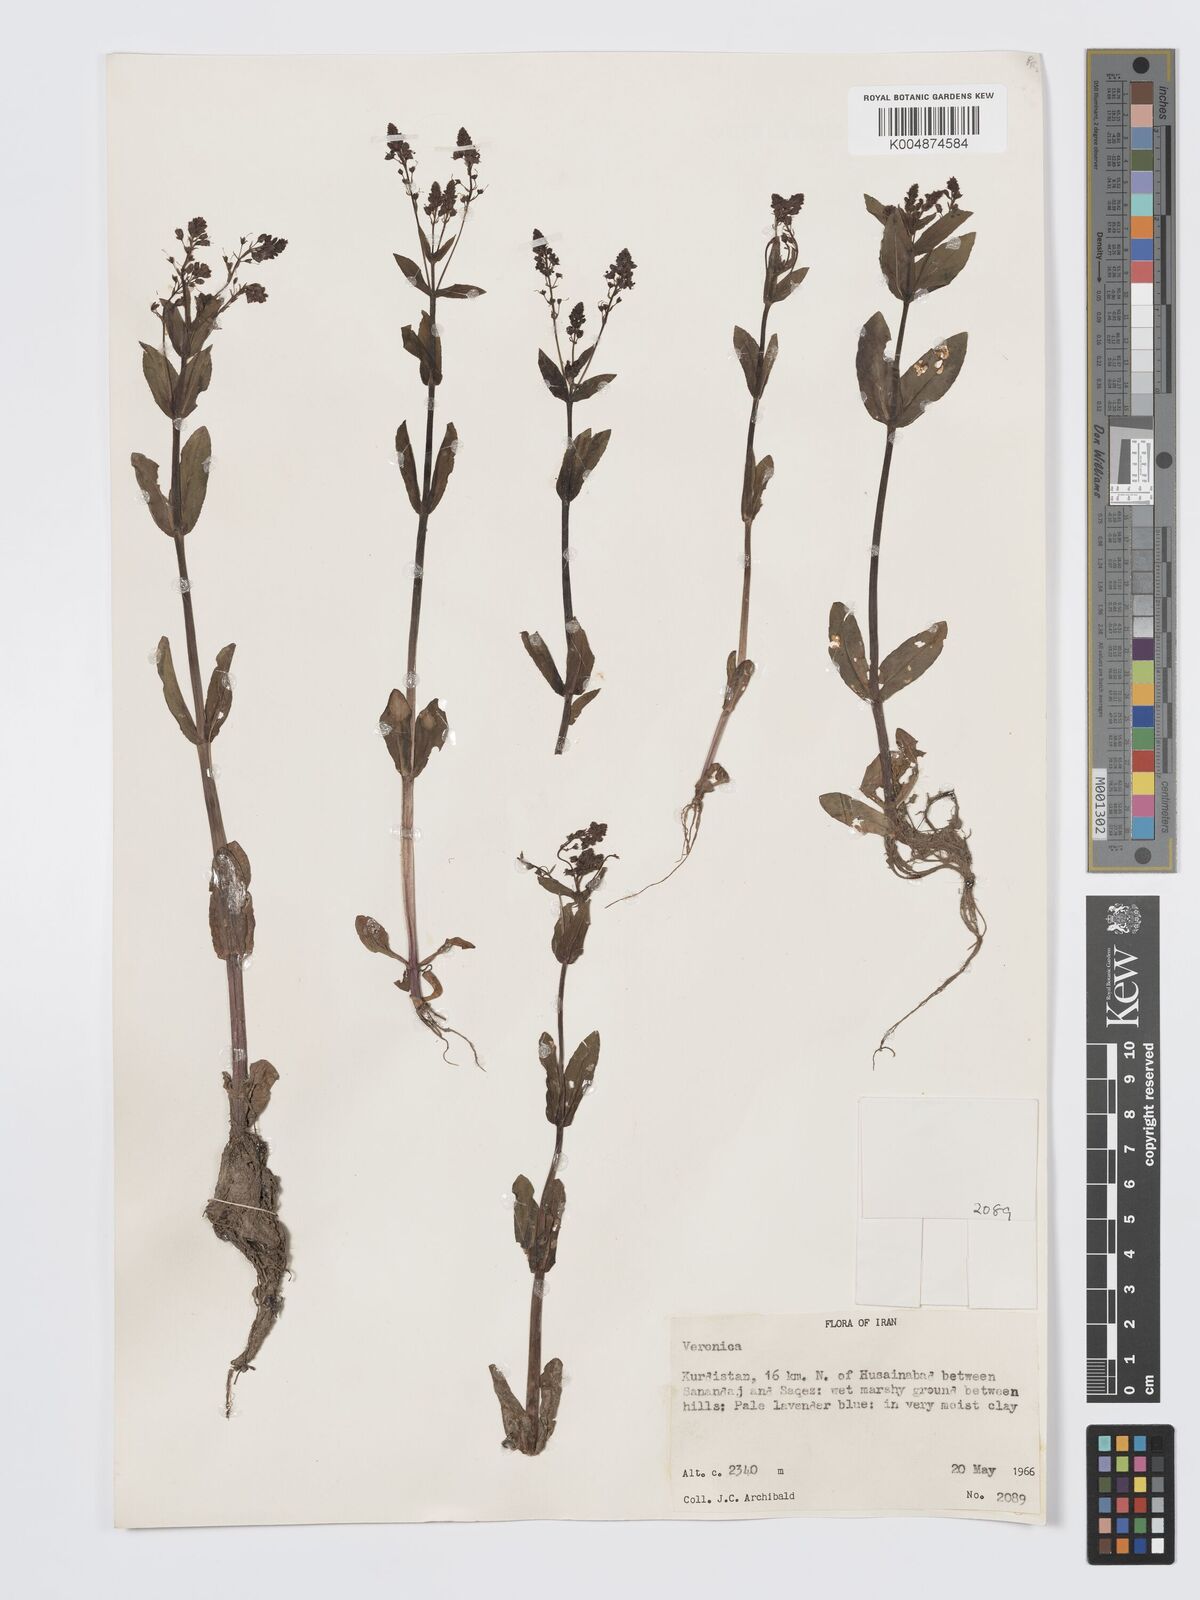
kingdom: Plantae
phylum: Tracheophyta
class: Magnoliopsida
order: Lamiales
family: Plantaginaceae
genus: Veronica
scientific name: Veronica
